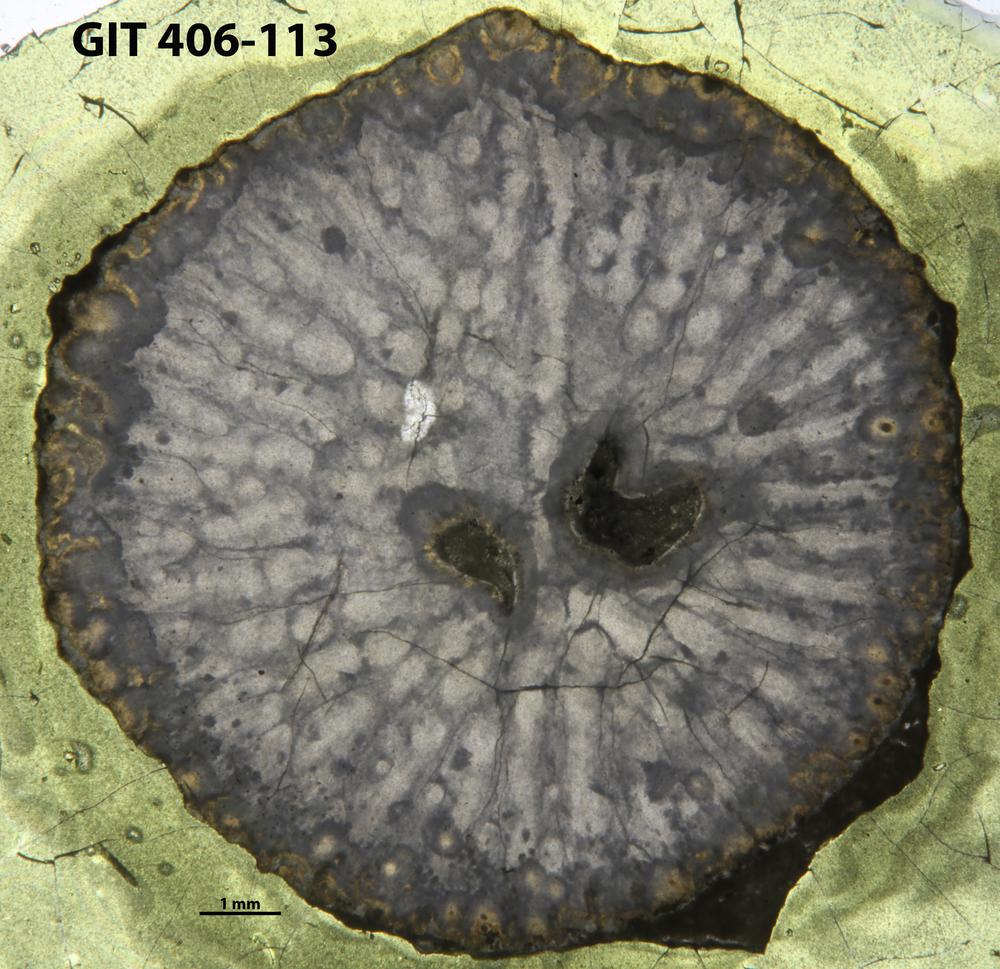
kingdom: Animalia
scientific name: Animalia
